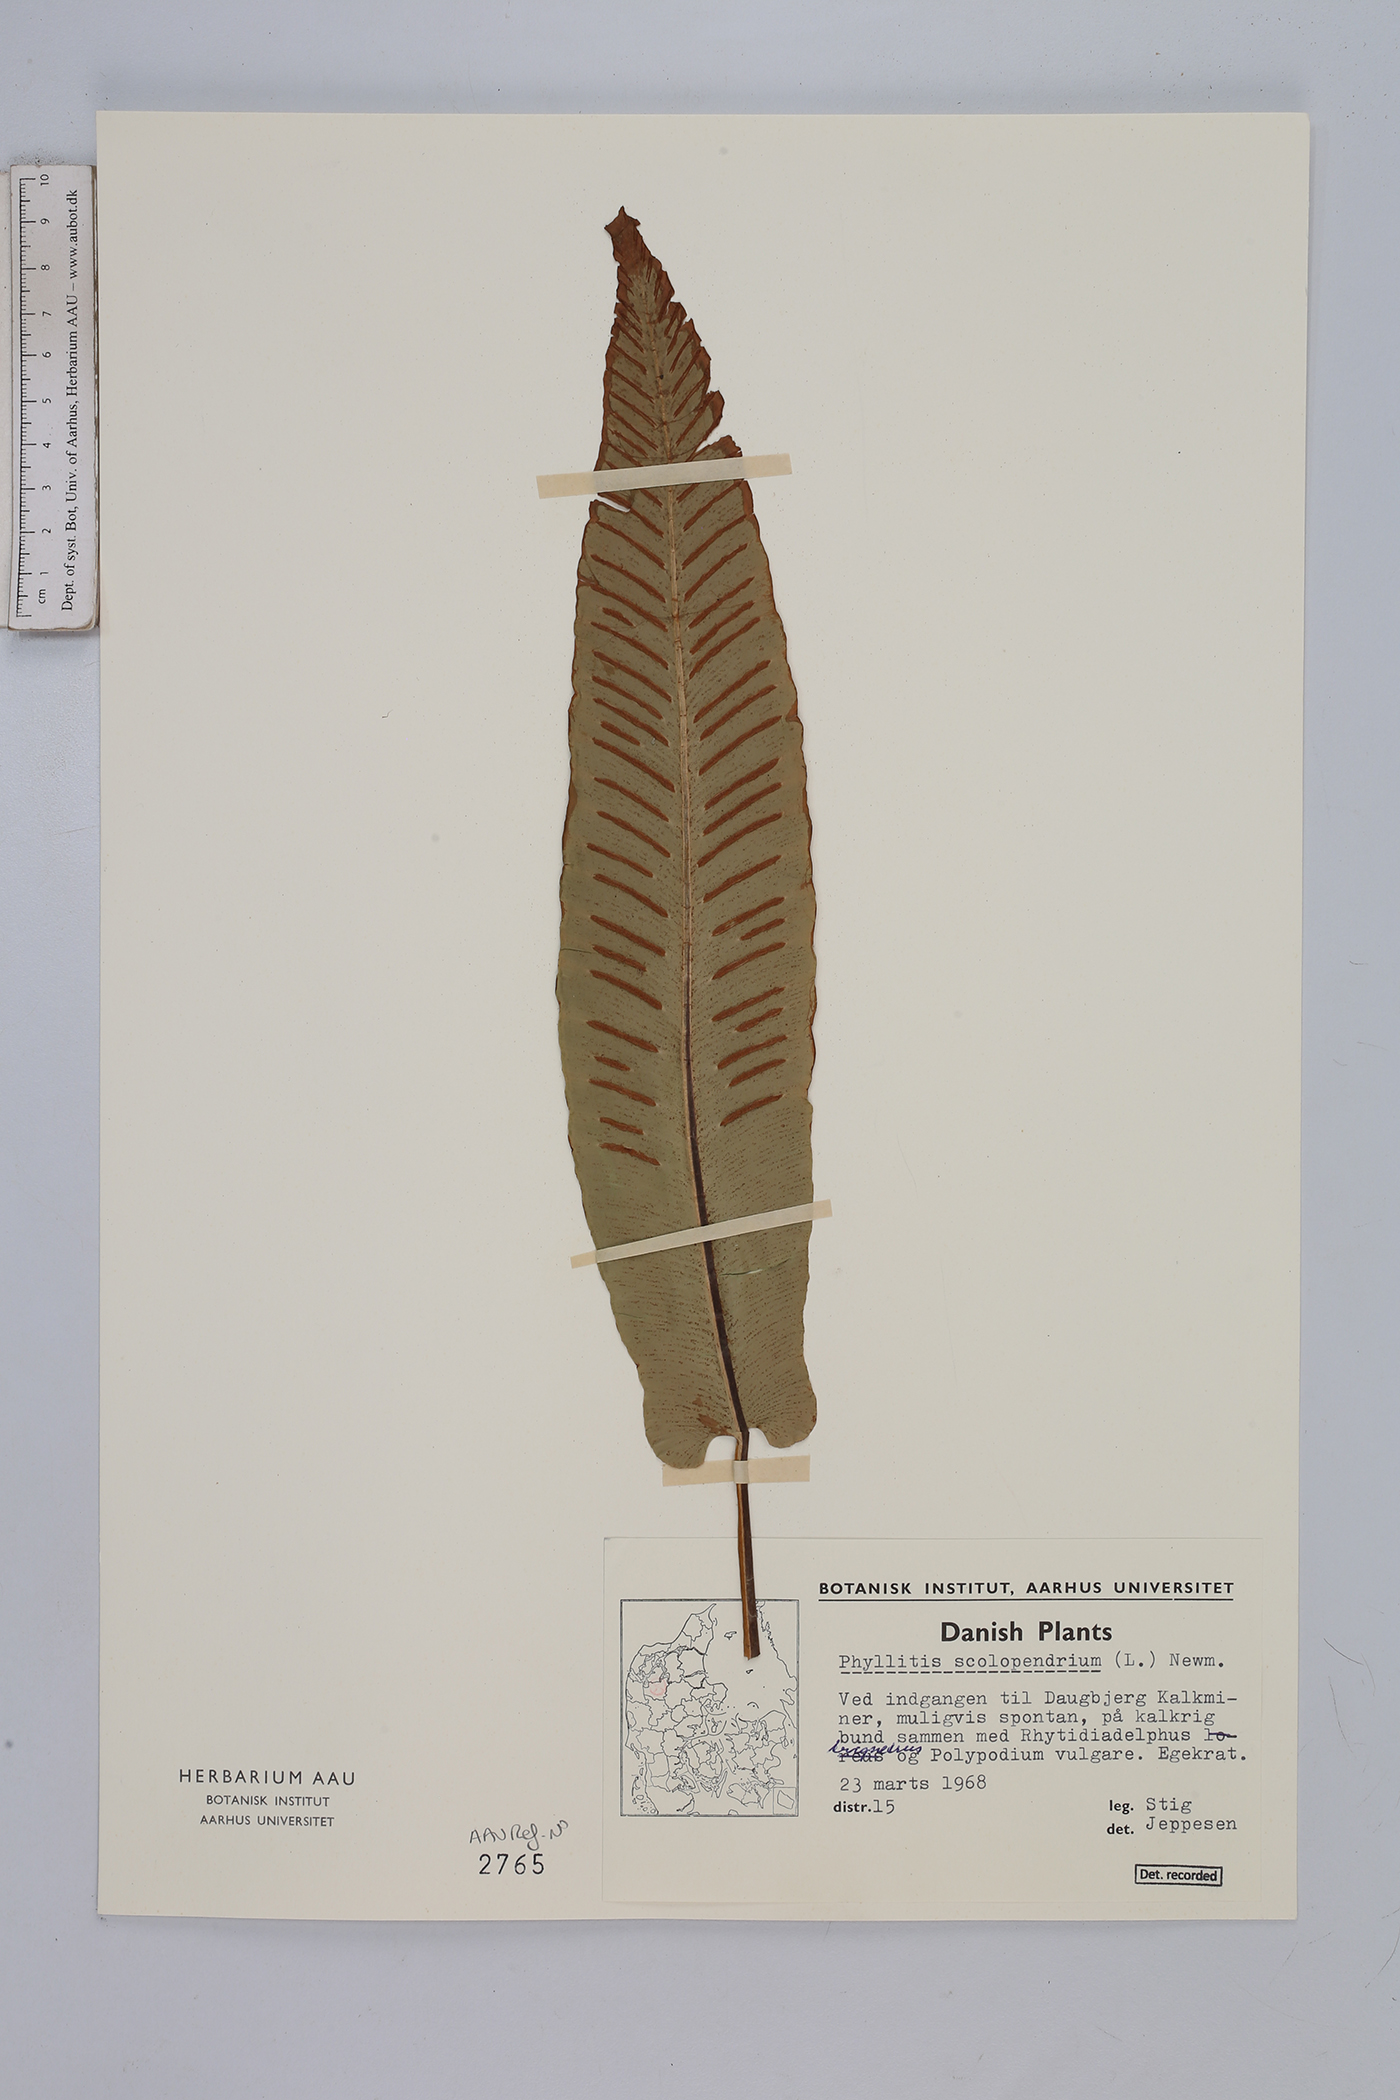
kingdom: Plantae
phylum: Tracheophyta
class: Polypodiopsida
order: Polypodiales
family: Aspleniaceae
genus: Asplenium
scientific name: Asplenium scolopendrium
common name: Hart's-tongue fern
